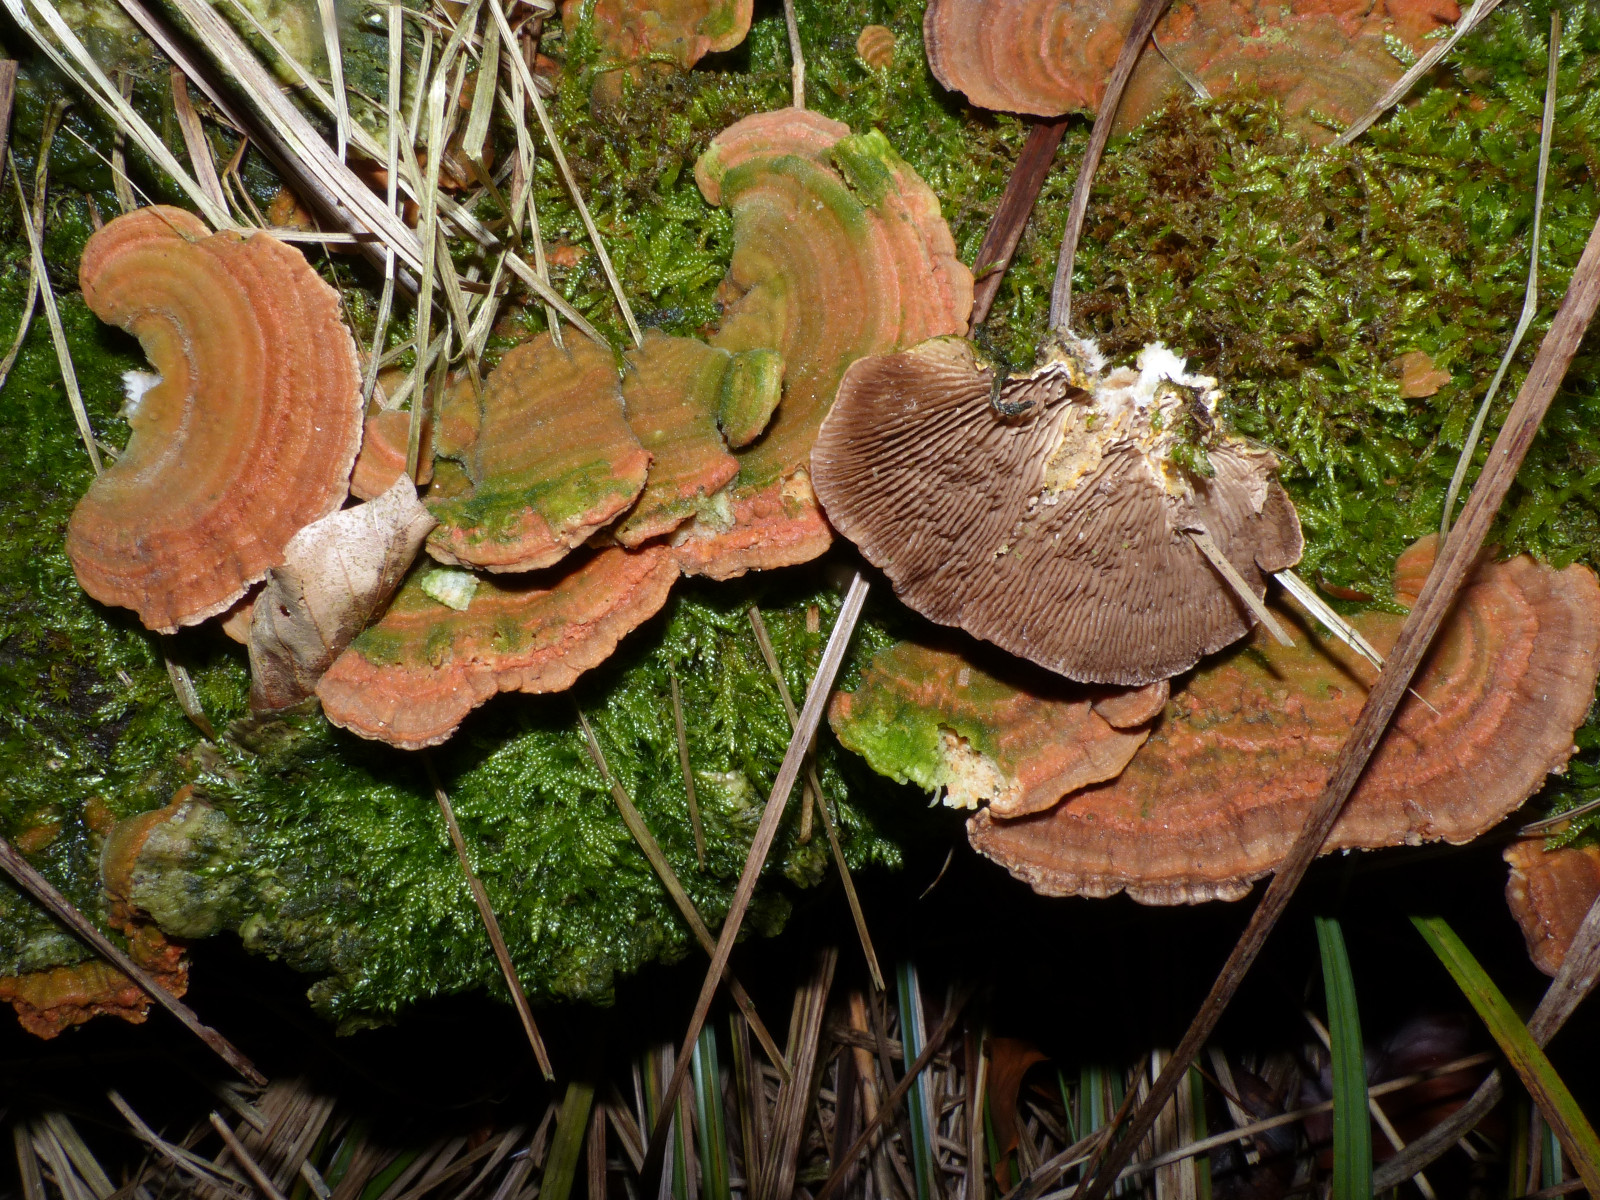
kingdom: Fungi
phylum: Basidiomycota
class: Agaricomycetes
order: Polyporales
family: Polyporaceae
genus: Lenzites
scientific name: Lenzites betulinus
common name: birke-læderporesvamp
